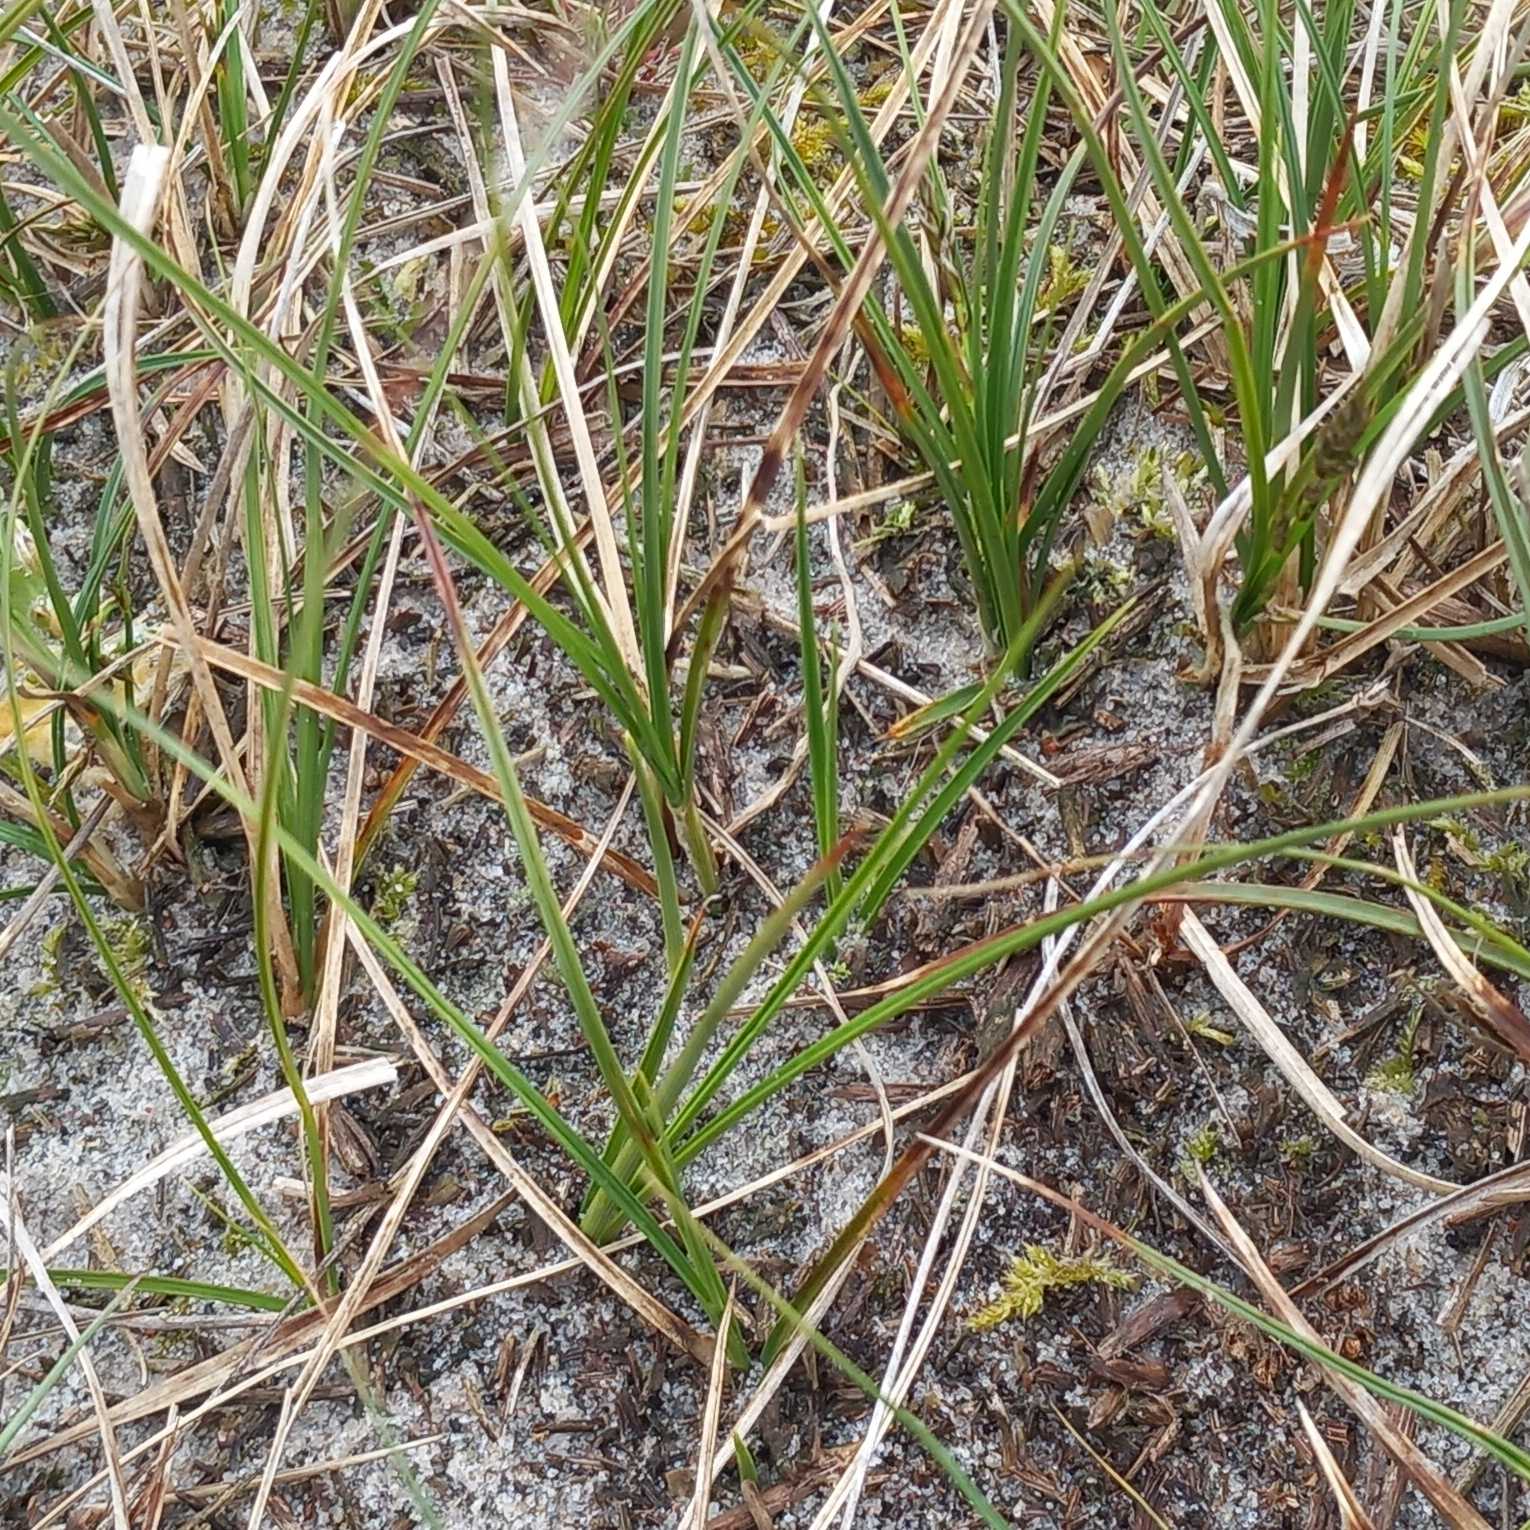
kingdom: Plantae
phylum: Tracheophyta
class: Liliopsida
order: Poales
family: Cyperaceae
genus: Carex
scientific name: Carex arenaria
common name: Sand-star
